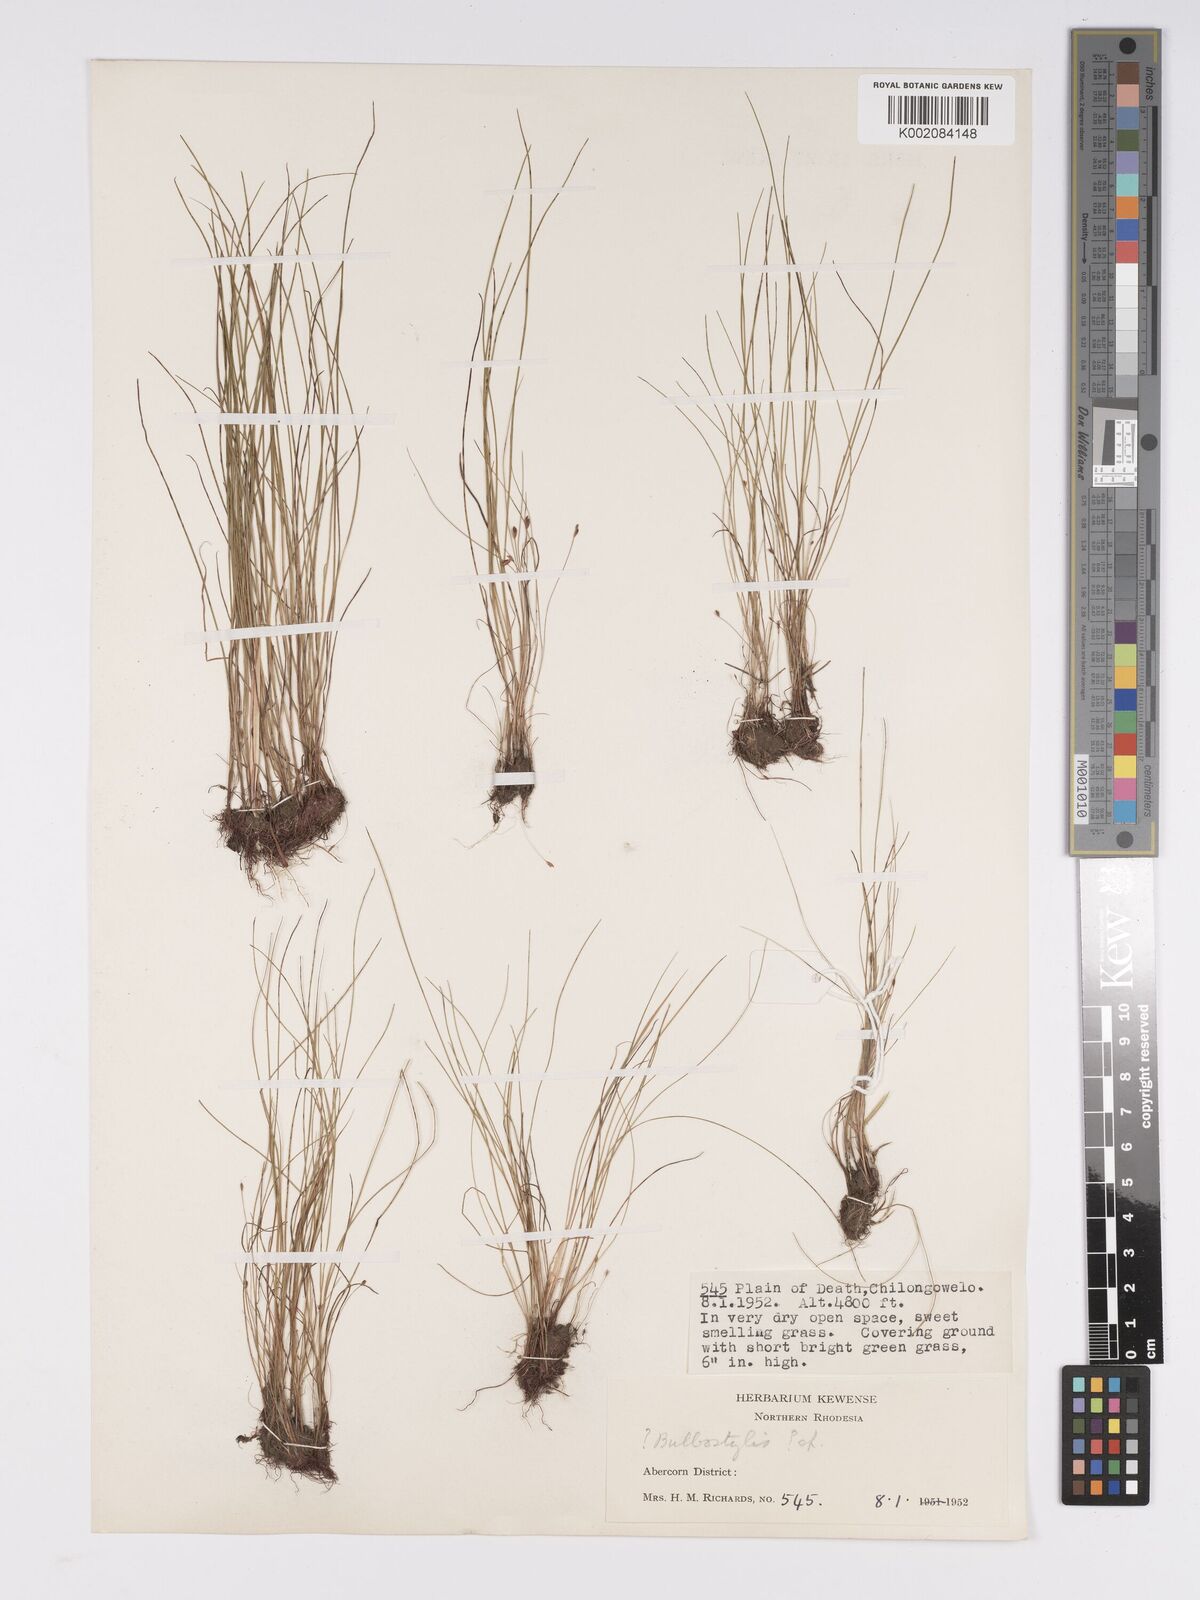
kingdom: Plantae
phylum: Tracheophyta
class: Liliopsida
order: Poales
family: Cyperaceae
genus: Bulbostylis
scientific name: Bulbostylis
